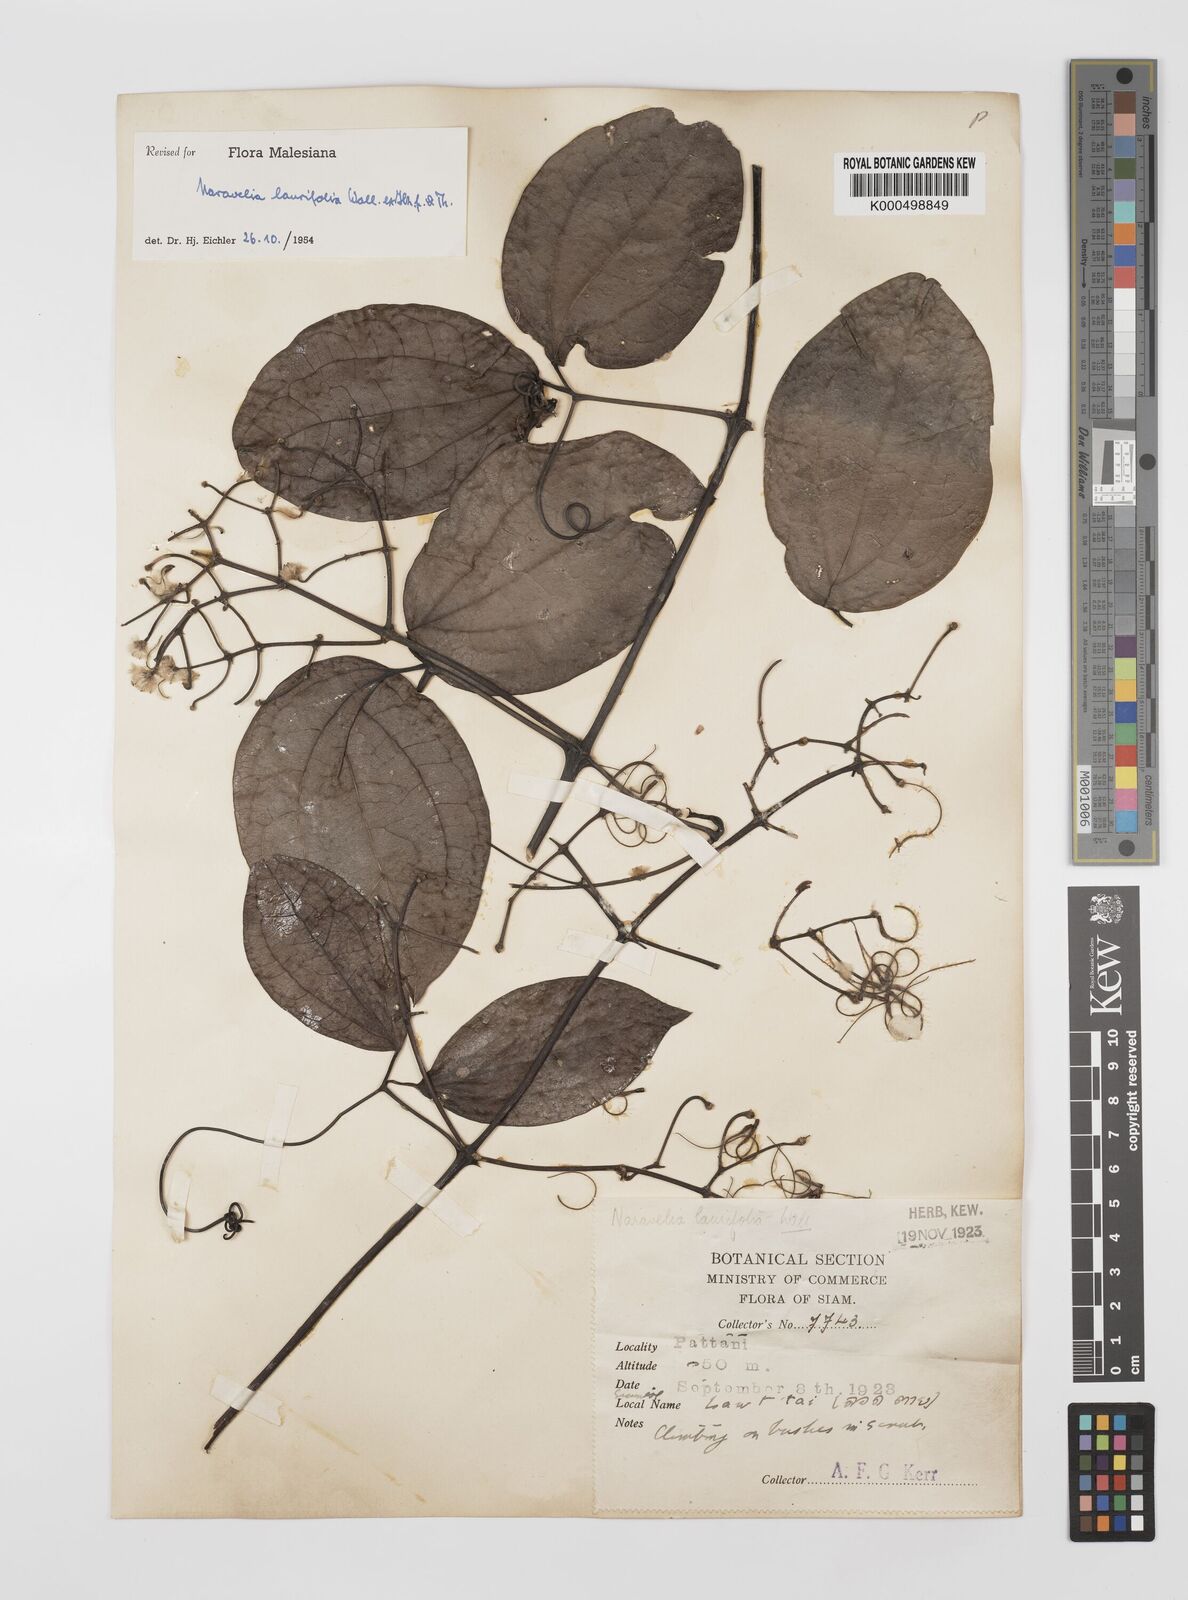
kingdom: Plantae
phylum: Tracheophyta
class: Magnoliopsida
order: Ranunculales
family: Ranunculaceae
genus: Clematis
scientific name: Clematis horripilata
